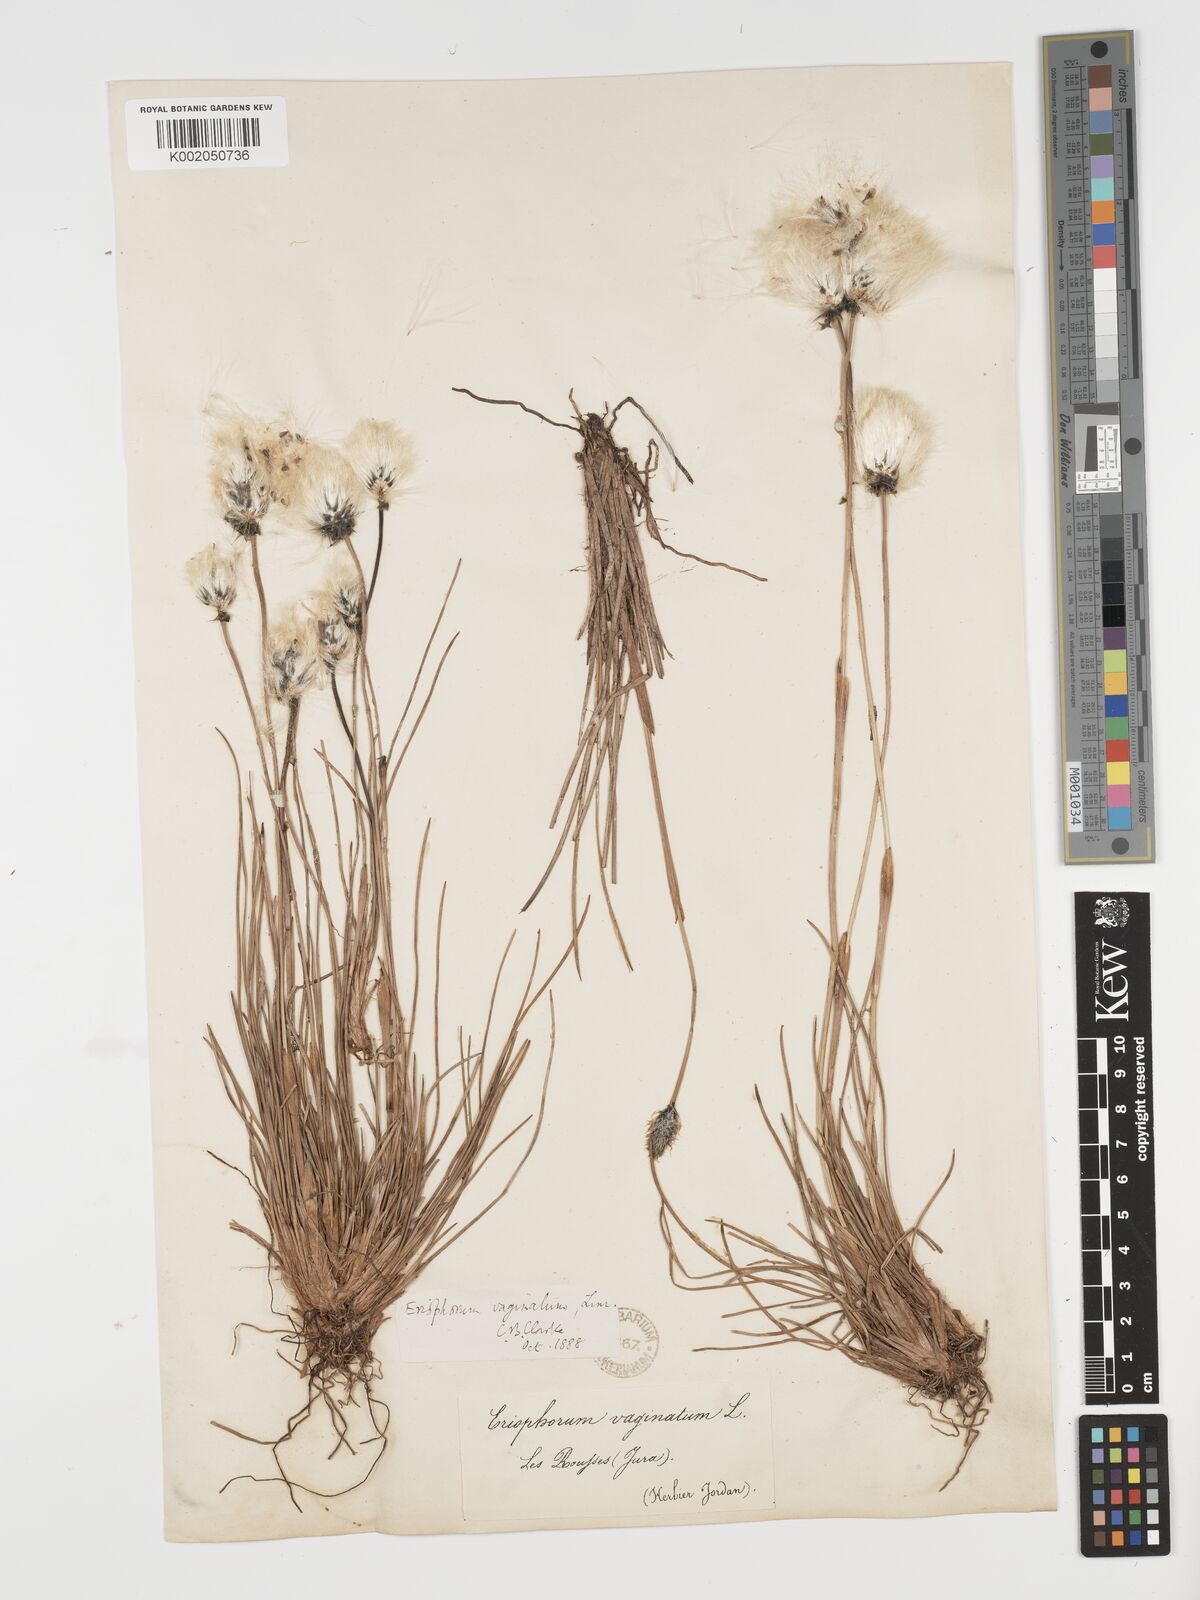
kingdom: Plantae
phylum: Tracheophyta
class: Liliopsida
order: Poales
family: Cyperaceae
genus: Eriophorum
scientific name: Eriophorum vaginatum
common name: Hare's-tail cottongrass
